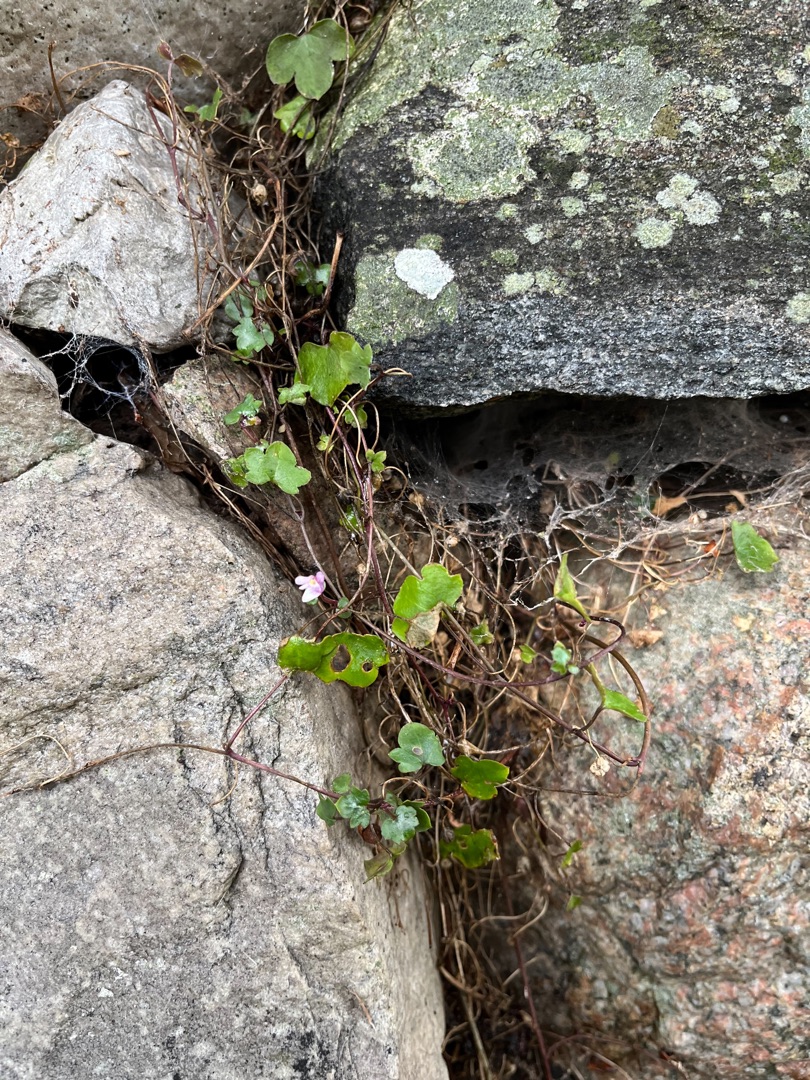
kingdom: Plantae
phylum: Tracheophyta
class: Magnoliopsida
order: Lamiales
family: Plantaginaceae
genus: Cymbalaria
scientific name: Cymbalaria muralis
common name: Vedbend-torskemund
